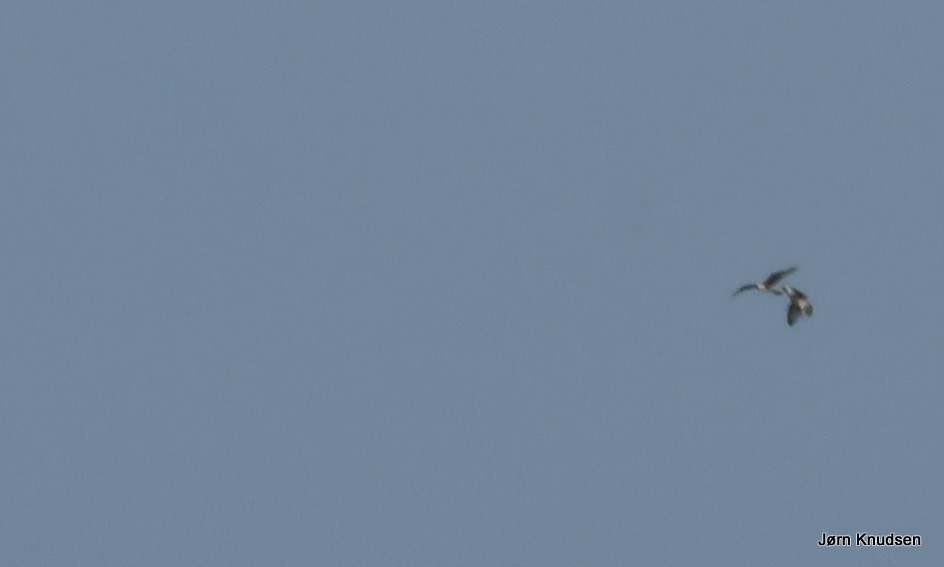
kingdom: Animalia
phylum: Chordata
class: Aves
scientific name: Aves
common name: Fugle
